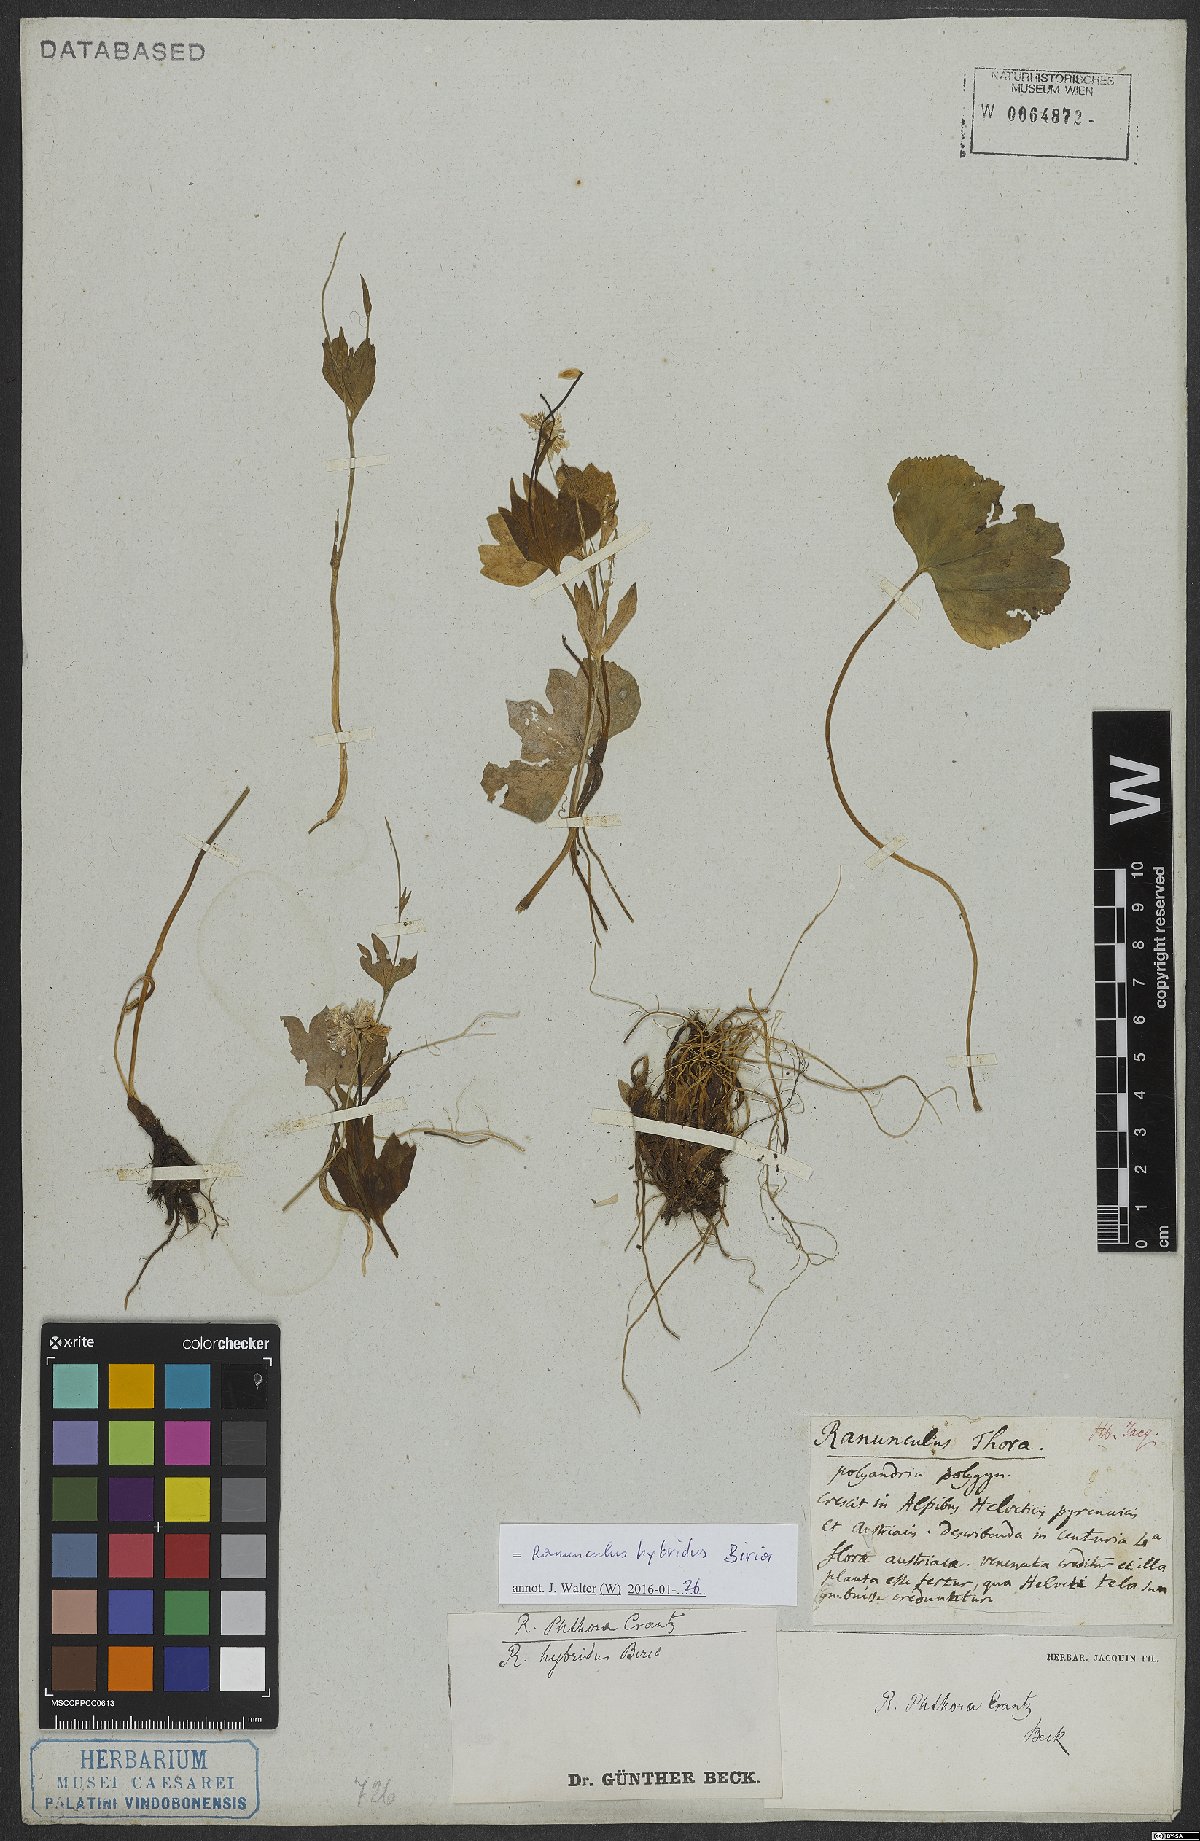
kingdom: Plantae
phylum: Tracheophyta
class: Magnoliopsida
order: Ranunculales
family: Ranunculaceae
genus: Ranunculus
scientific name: Ranunculus hybridus
